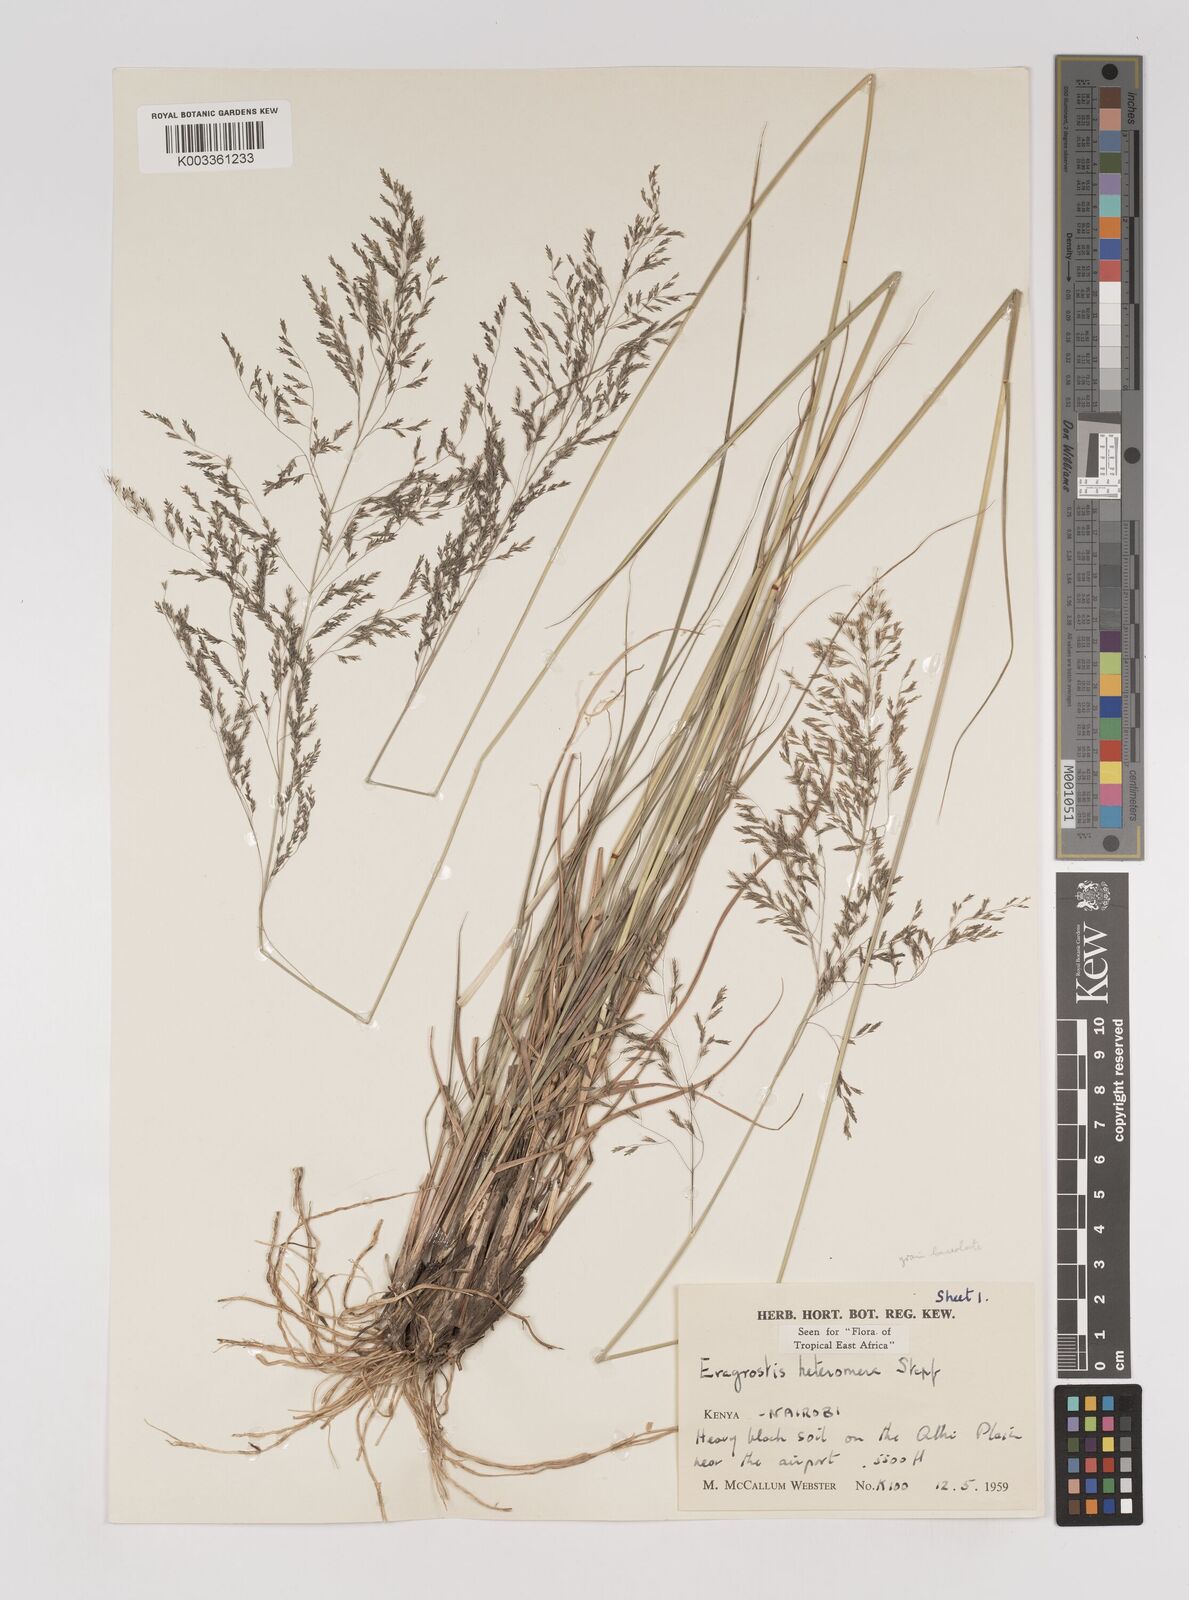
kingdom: Plantae
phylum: Tracheophyta
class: Liliopsida
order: Poales
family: Poaceae
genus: Eragrostis
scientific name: Eragrostis heteromera
